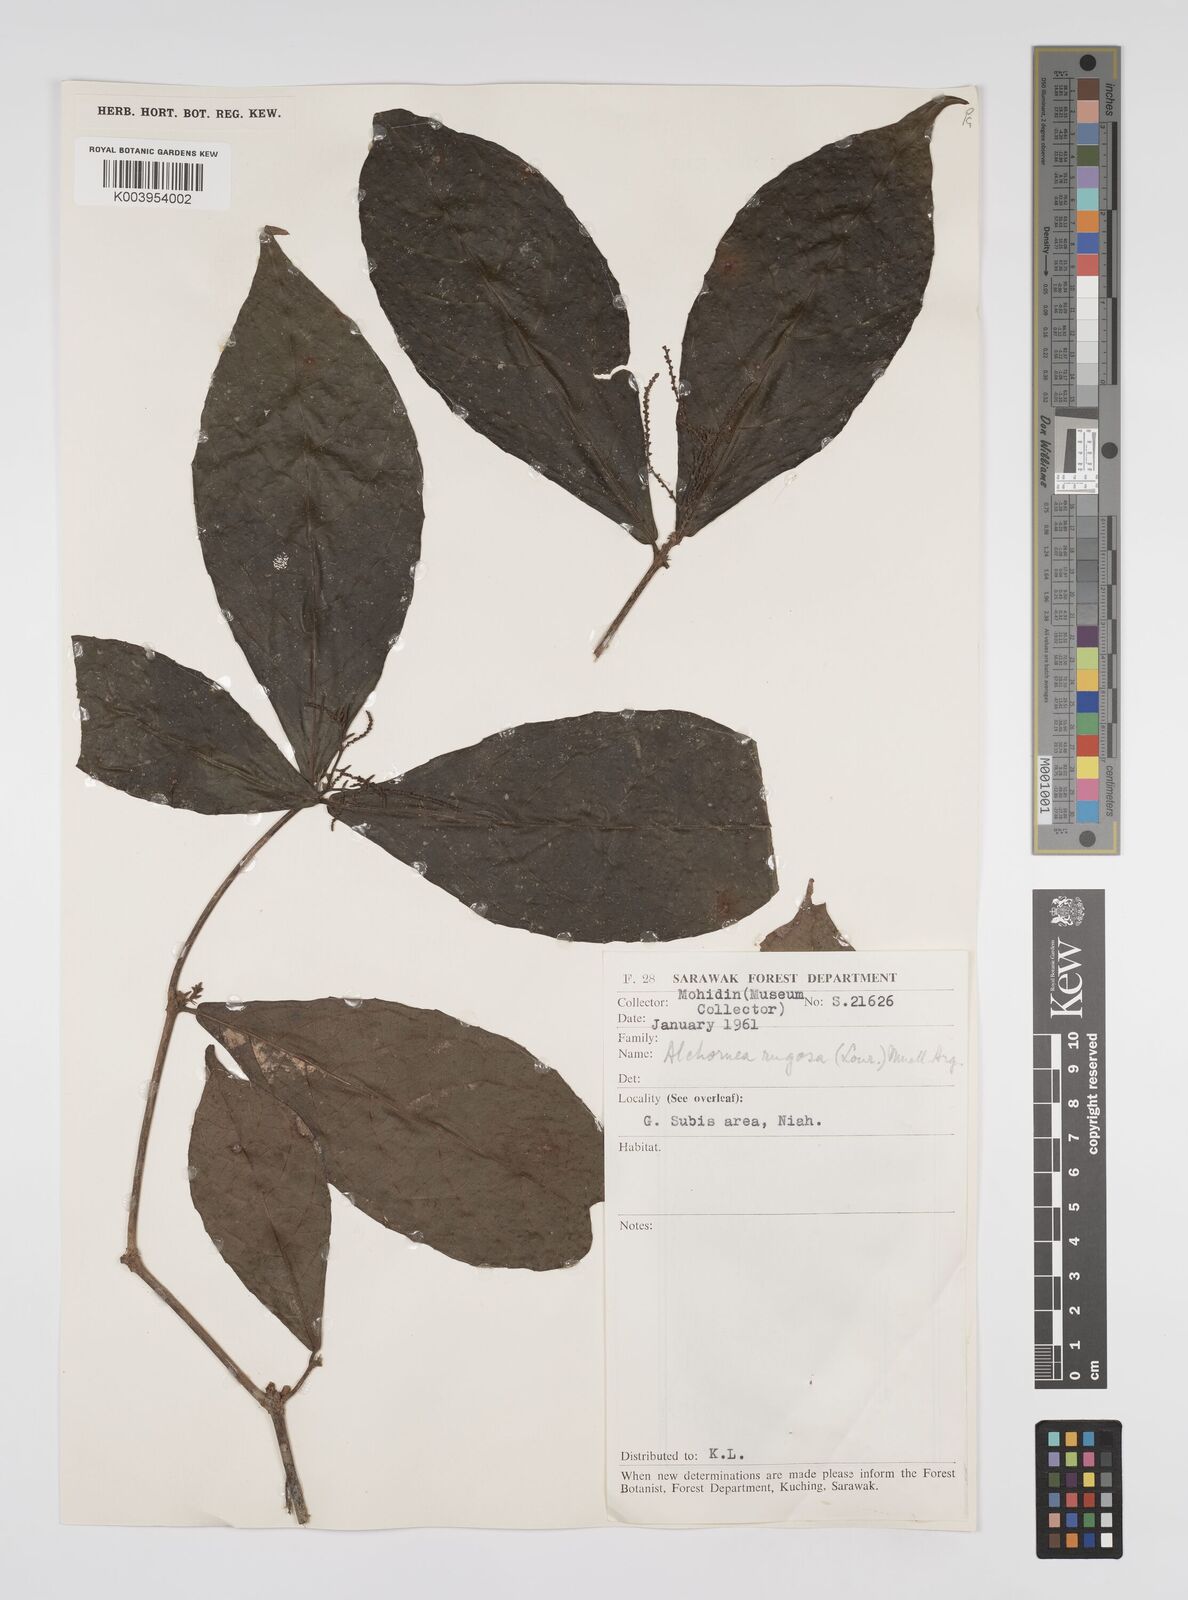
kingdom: Plantae
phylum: Tracheophyta
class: Magnoliopsida
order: Malpighiales
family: Euphorbiaceae
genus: Alchornea
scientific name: Alchornea rugosa
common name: Alchorntree
